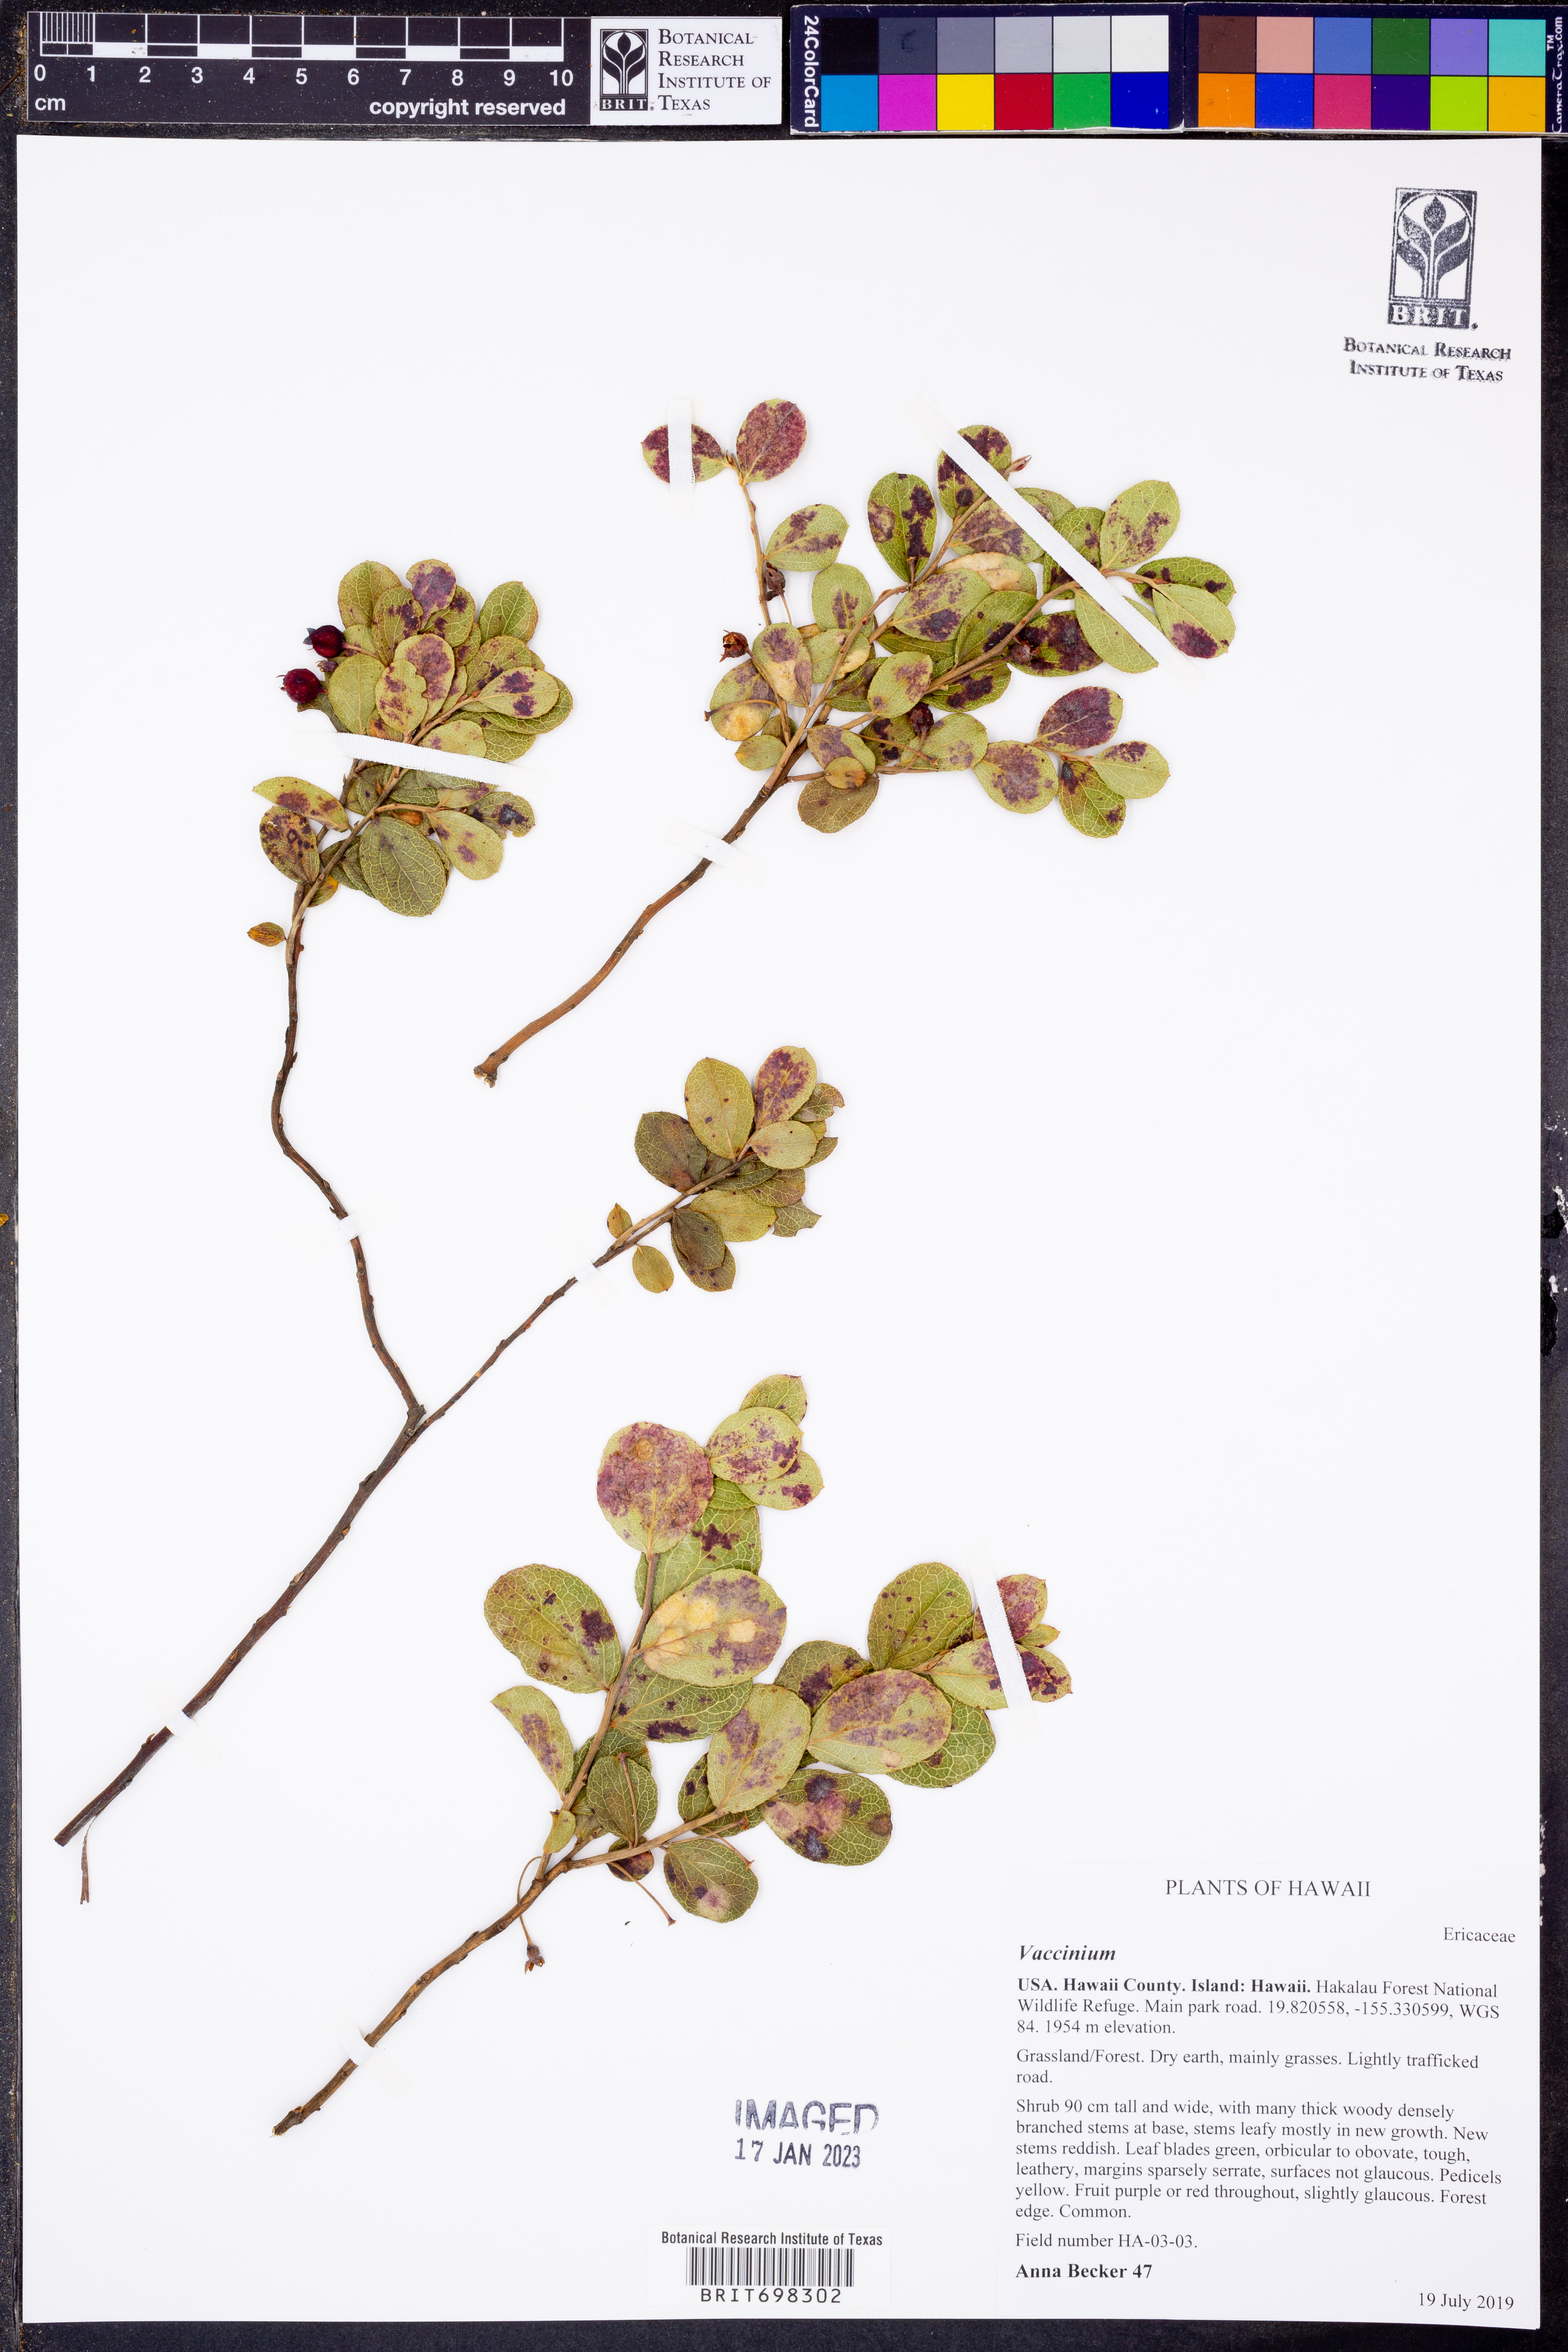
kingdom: Plantae
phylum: Tracheophyta
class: Magnoliopsida
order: Ericales
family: Ericaceae
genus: Vaccinium
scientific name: Vaccinium
